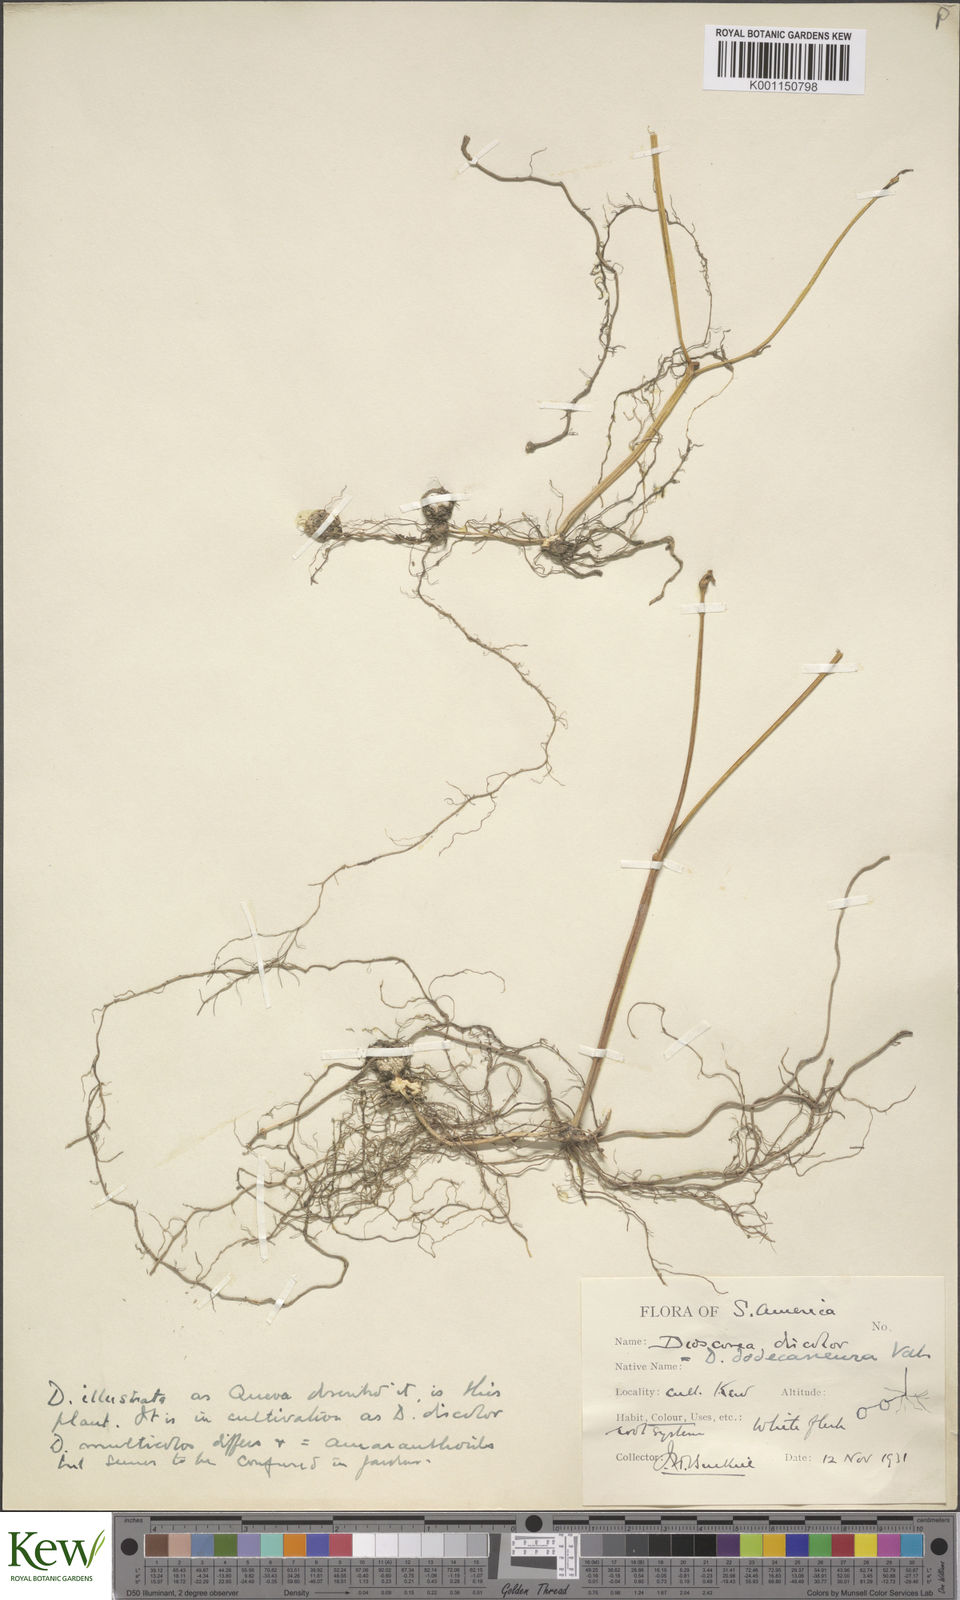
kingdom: Plantae
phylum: Tracheophyta
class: Liliopsida
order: Dioscoreales
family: Dioscoreaceae
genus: Dioscorea
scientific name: Dioscorea dodecaneura
